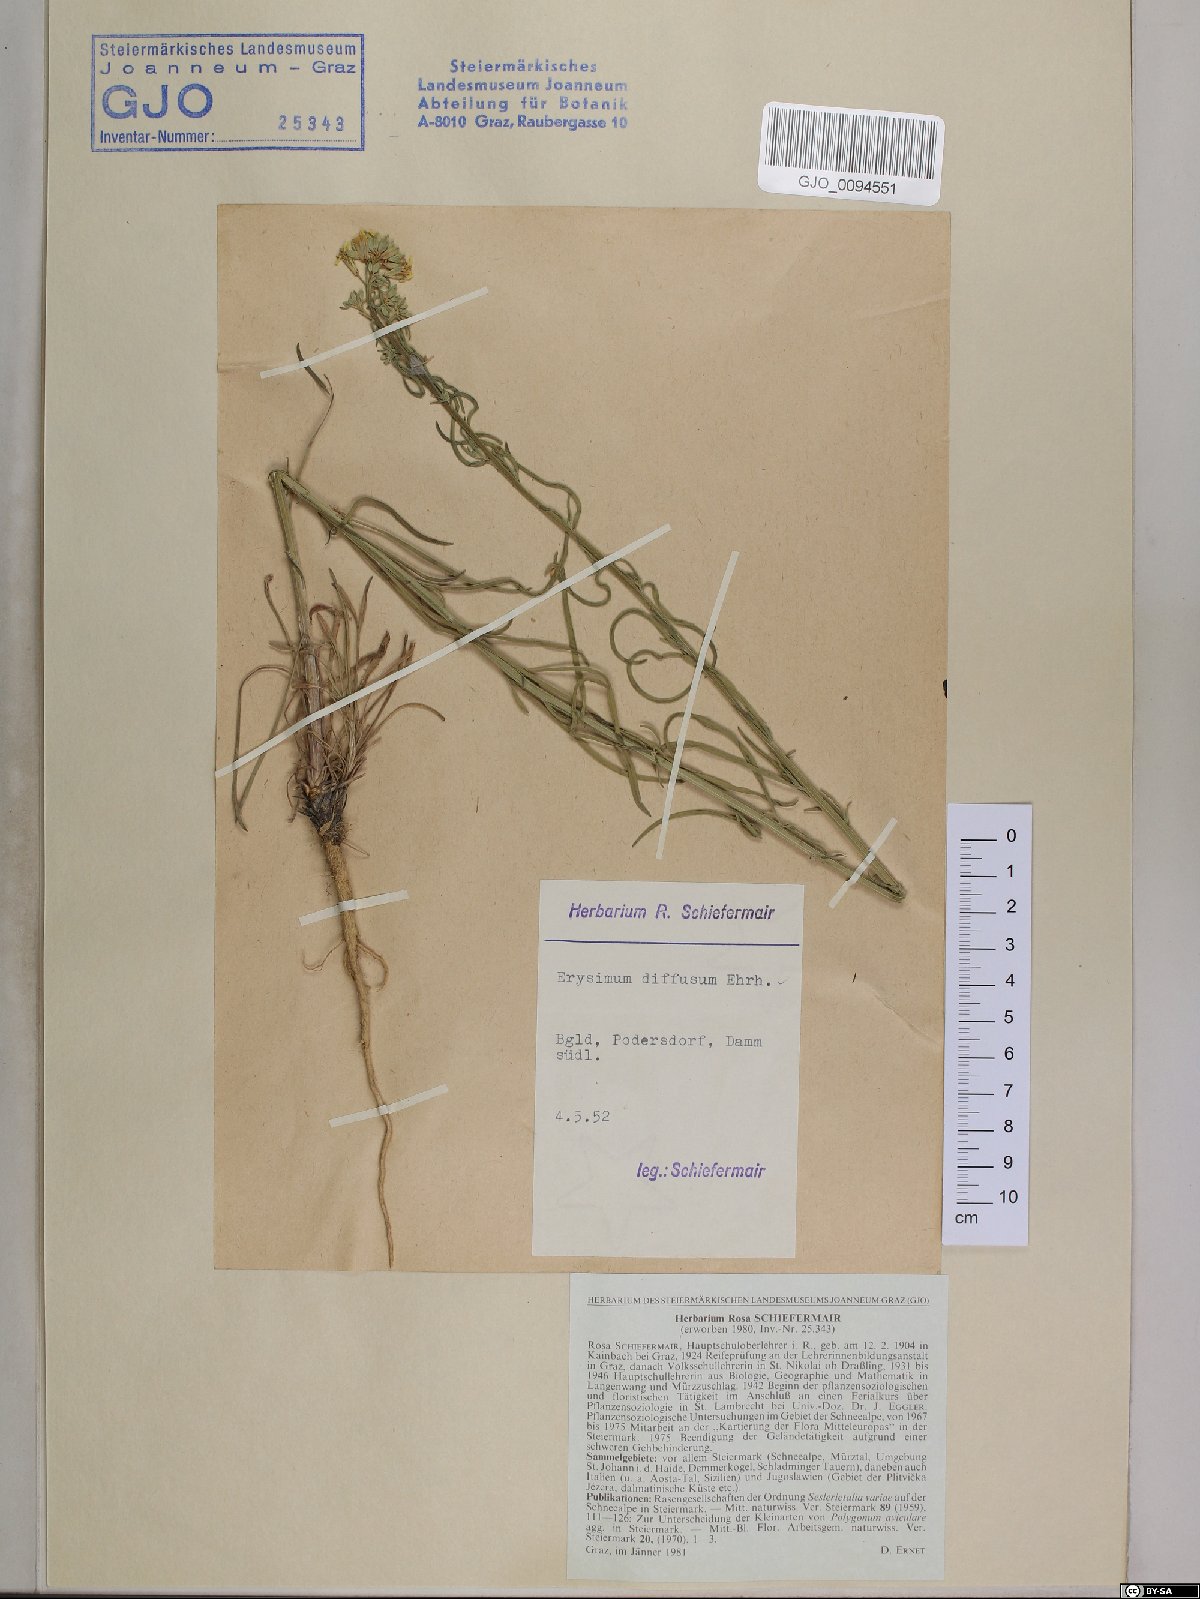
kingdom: Plantae
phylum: Tracheophyta
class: Magnoliopsida
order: Brassicales
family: Brassicaceae
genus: Erysimum
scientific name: Erysimum diffusum
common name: Diffuse wallflower
